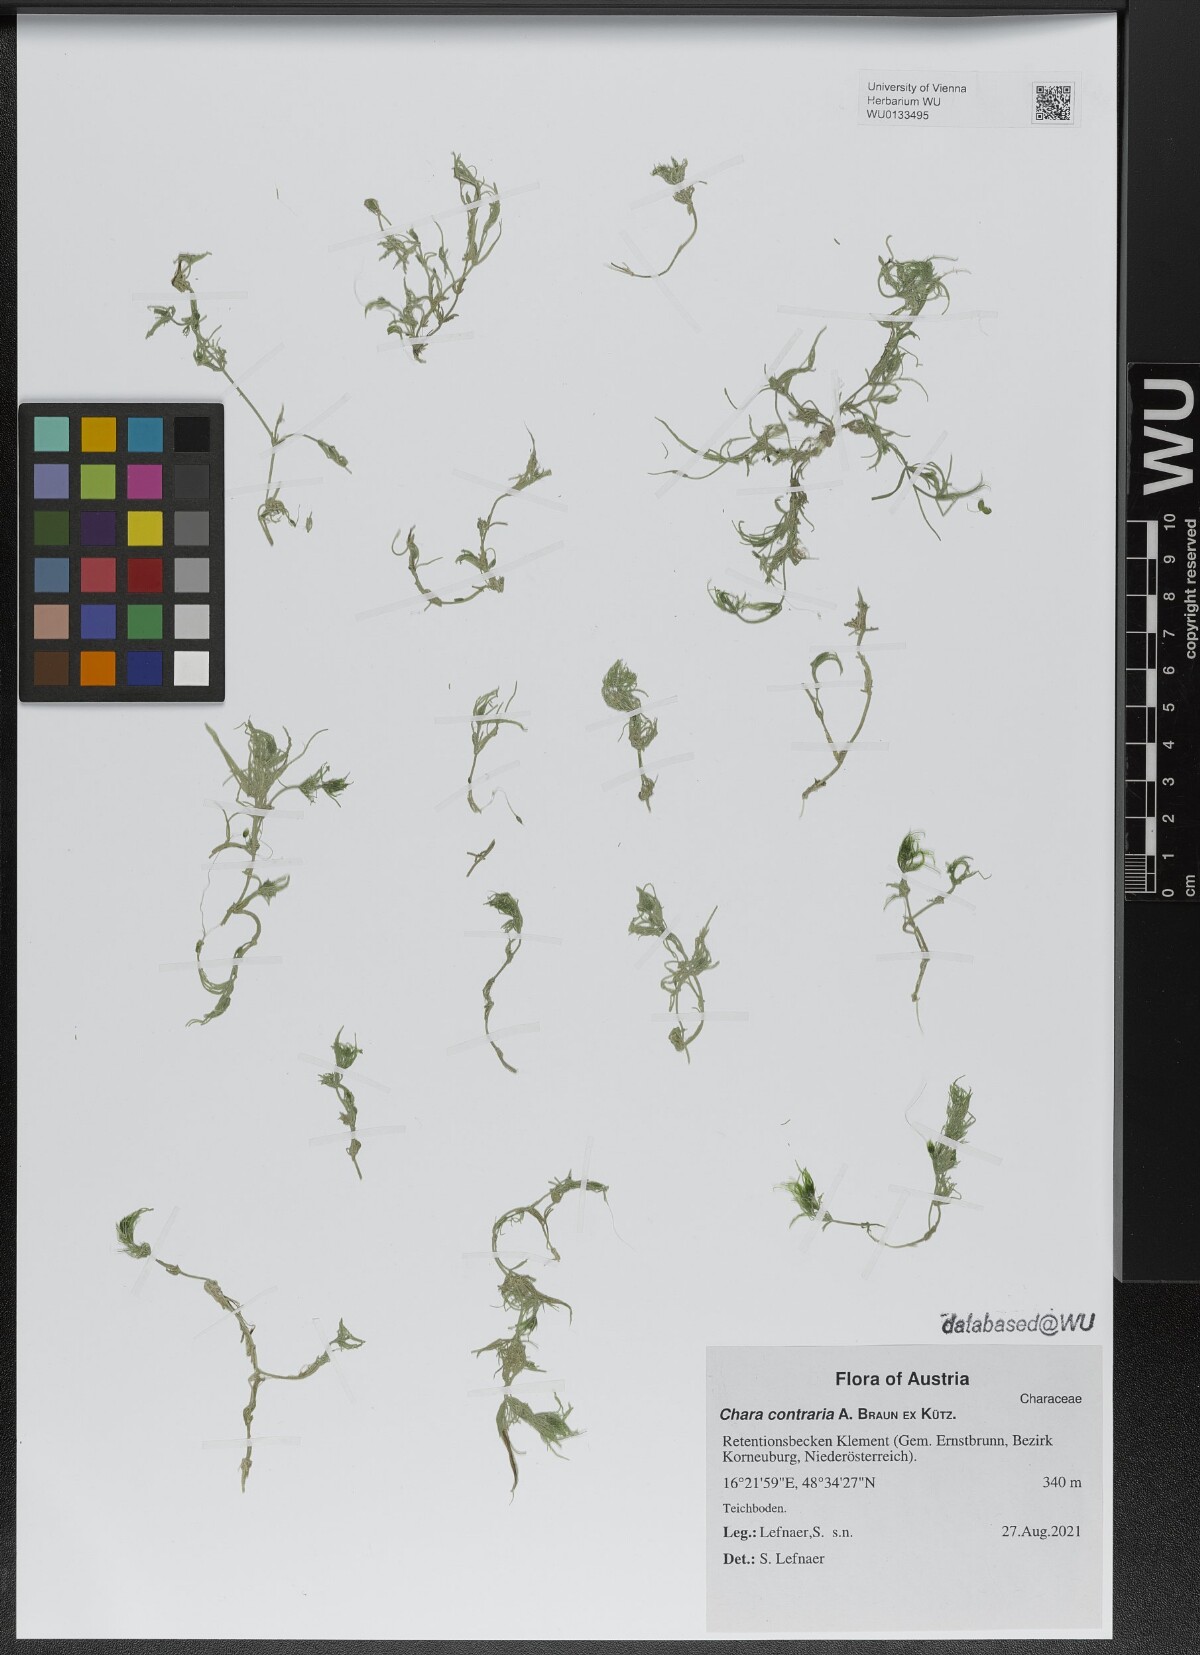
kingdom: Plantae
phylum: Charophyta
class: Charophyceae
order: Charales
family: Characeae
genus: Chara
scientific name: Chara contraria
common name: Opposite stonewort
